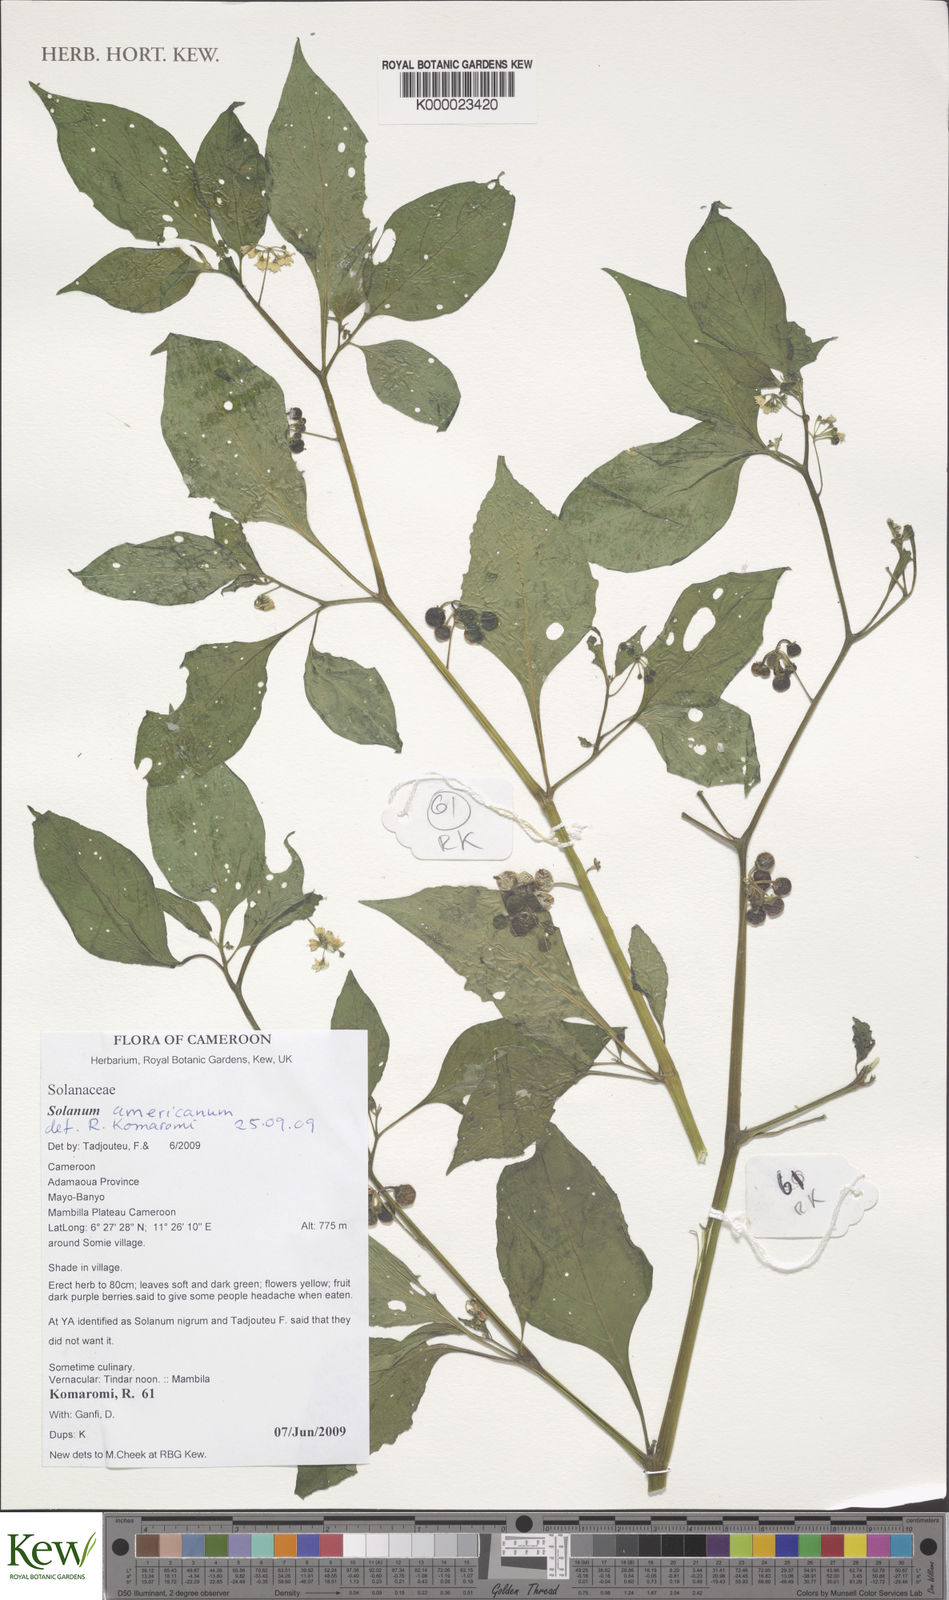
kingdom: Plantae
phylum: Tracheophyta
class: Magnoliopsida
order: Solanales
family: Solanaceae
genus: Solanum
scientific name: Solanum americanum
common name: American black nightshade
